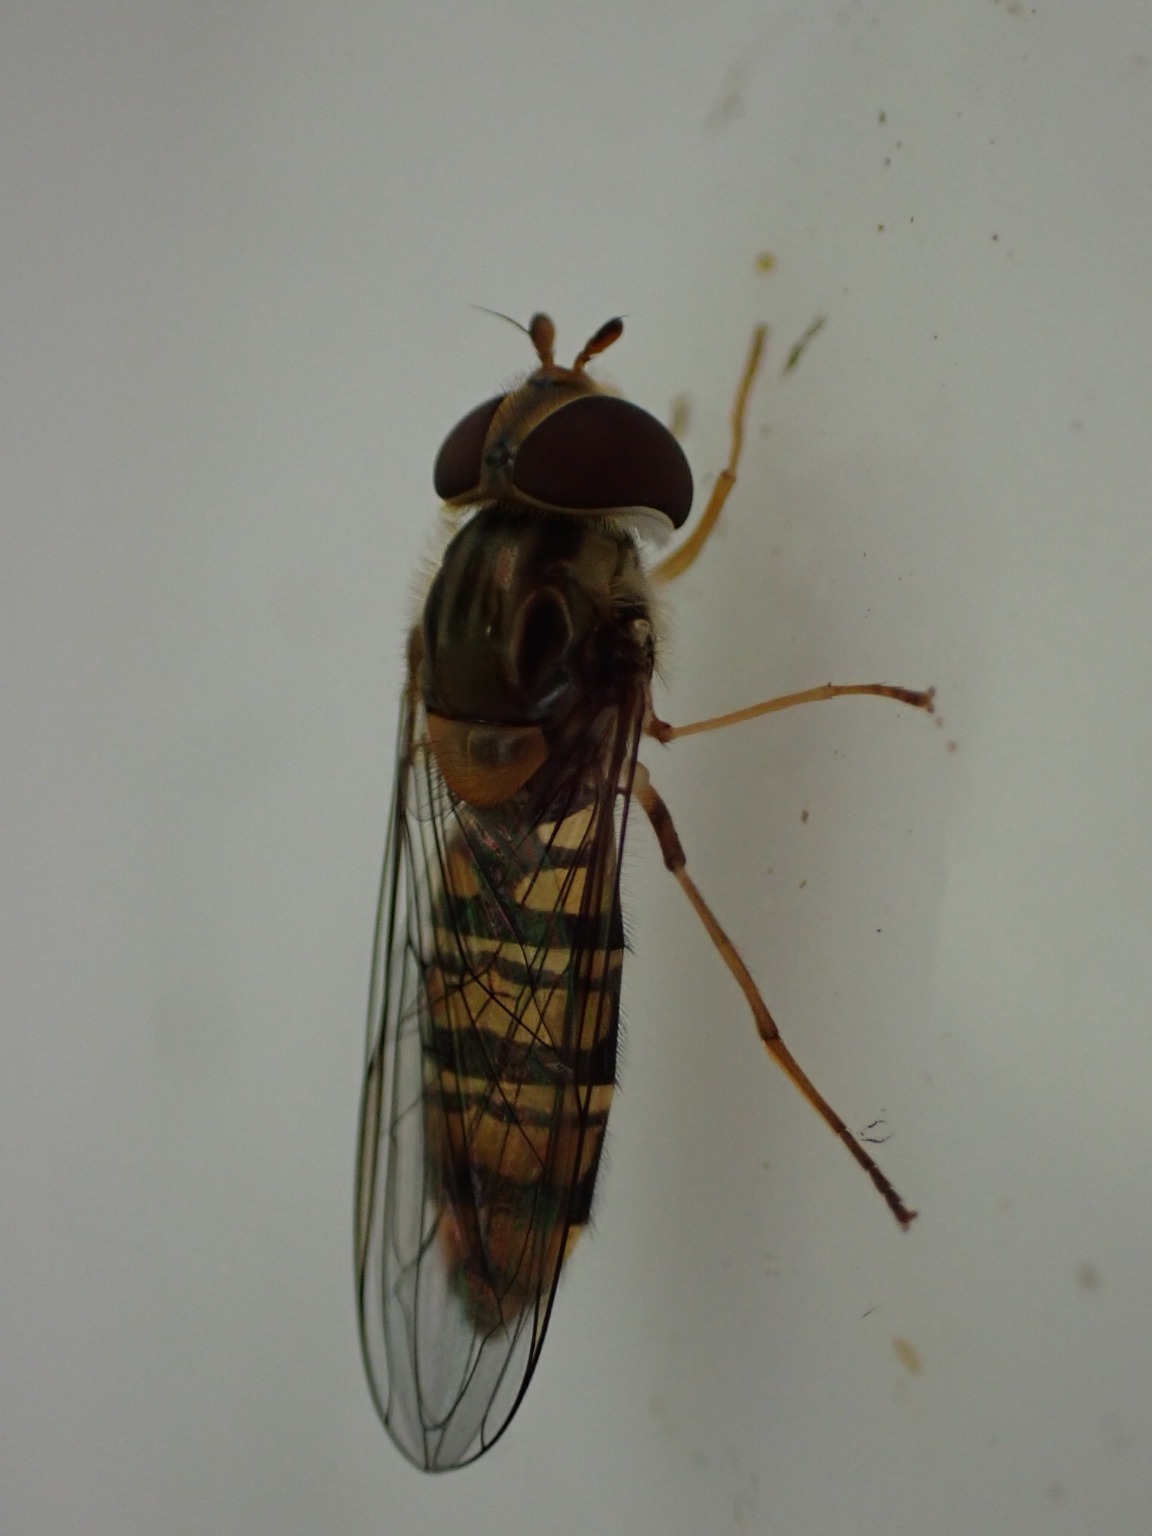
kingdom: Animalia
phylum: Arthropoda
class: Insecta
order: Diptera
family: Syrphidae
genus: Episyrphus
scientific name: Episyrphus balteatus
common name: Dobbeltbåndet svirreflue
